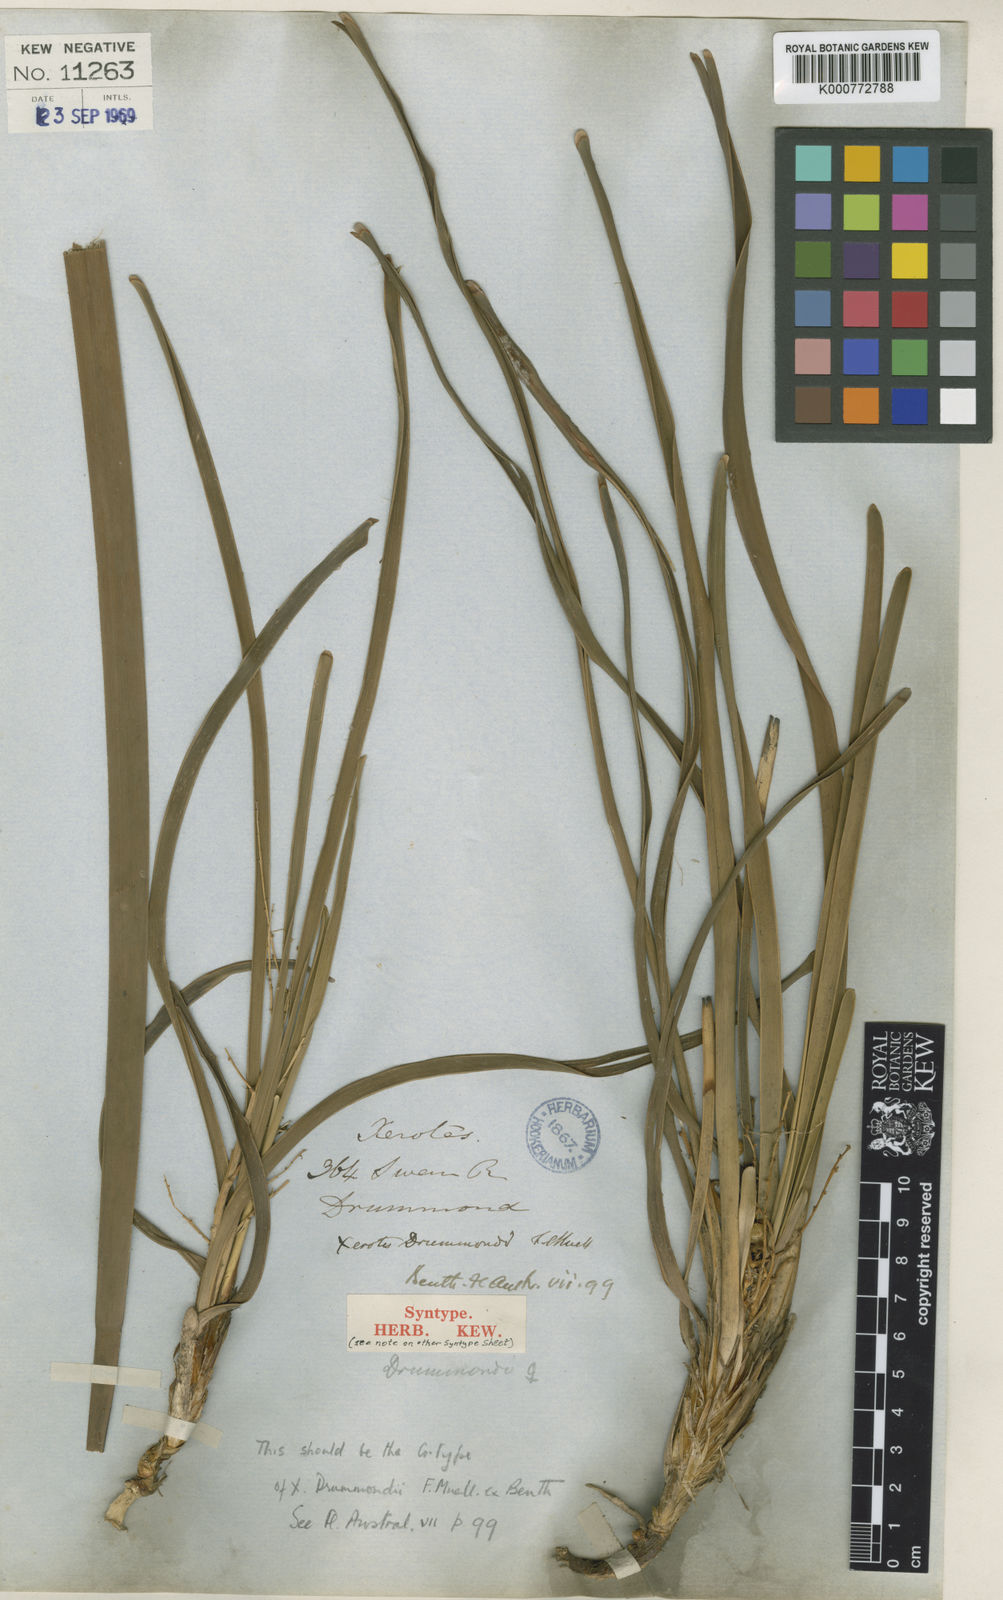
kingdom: Plantae
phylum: Tracheophyta
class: Liliopsida
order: Asparagales
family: Asparagaceae
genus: Lomandra
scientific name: Lomandra drummondii
